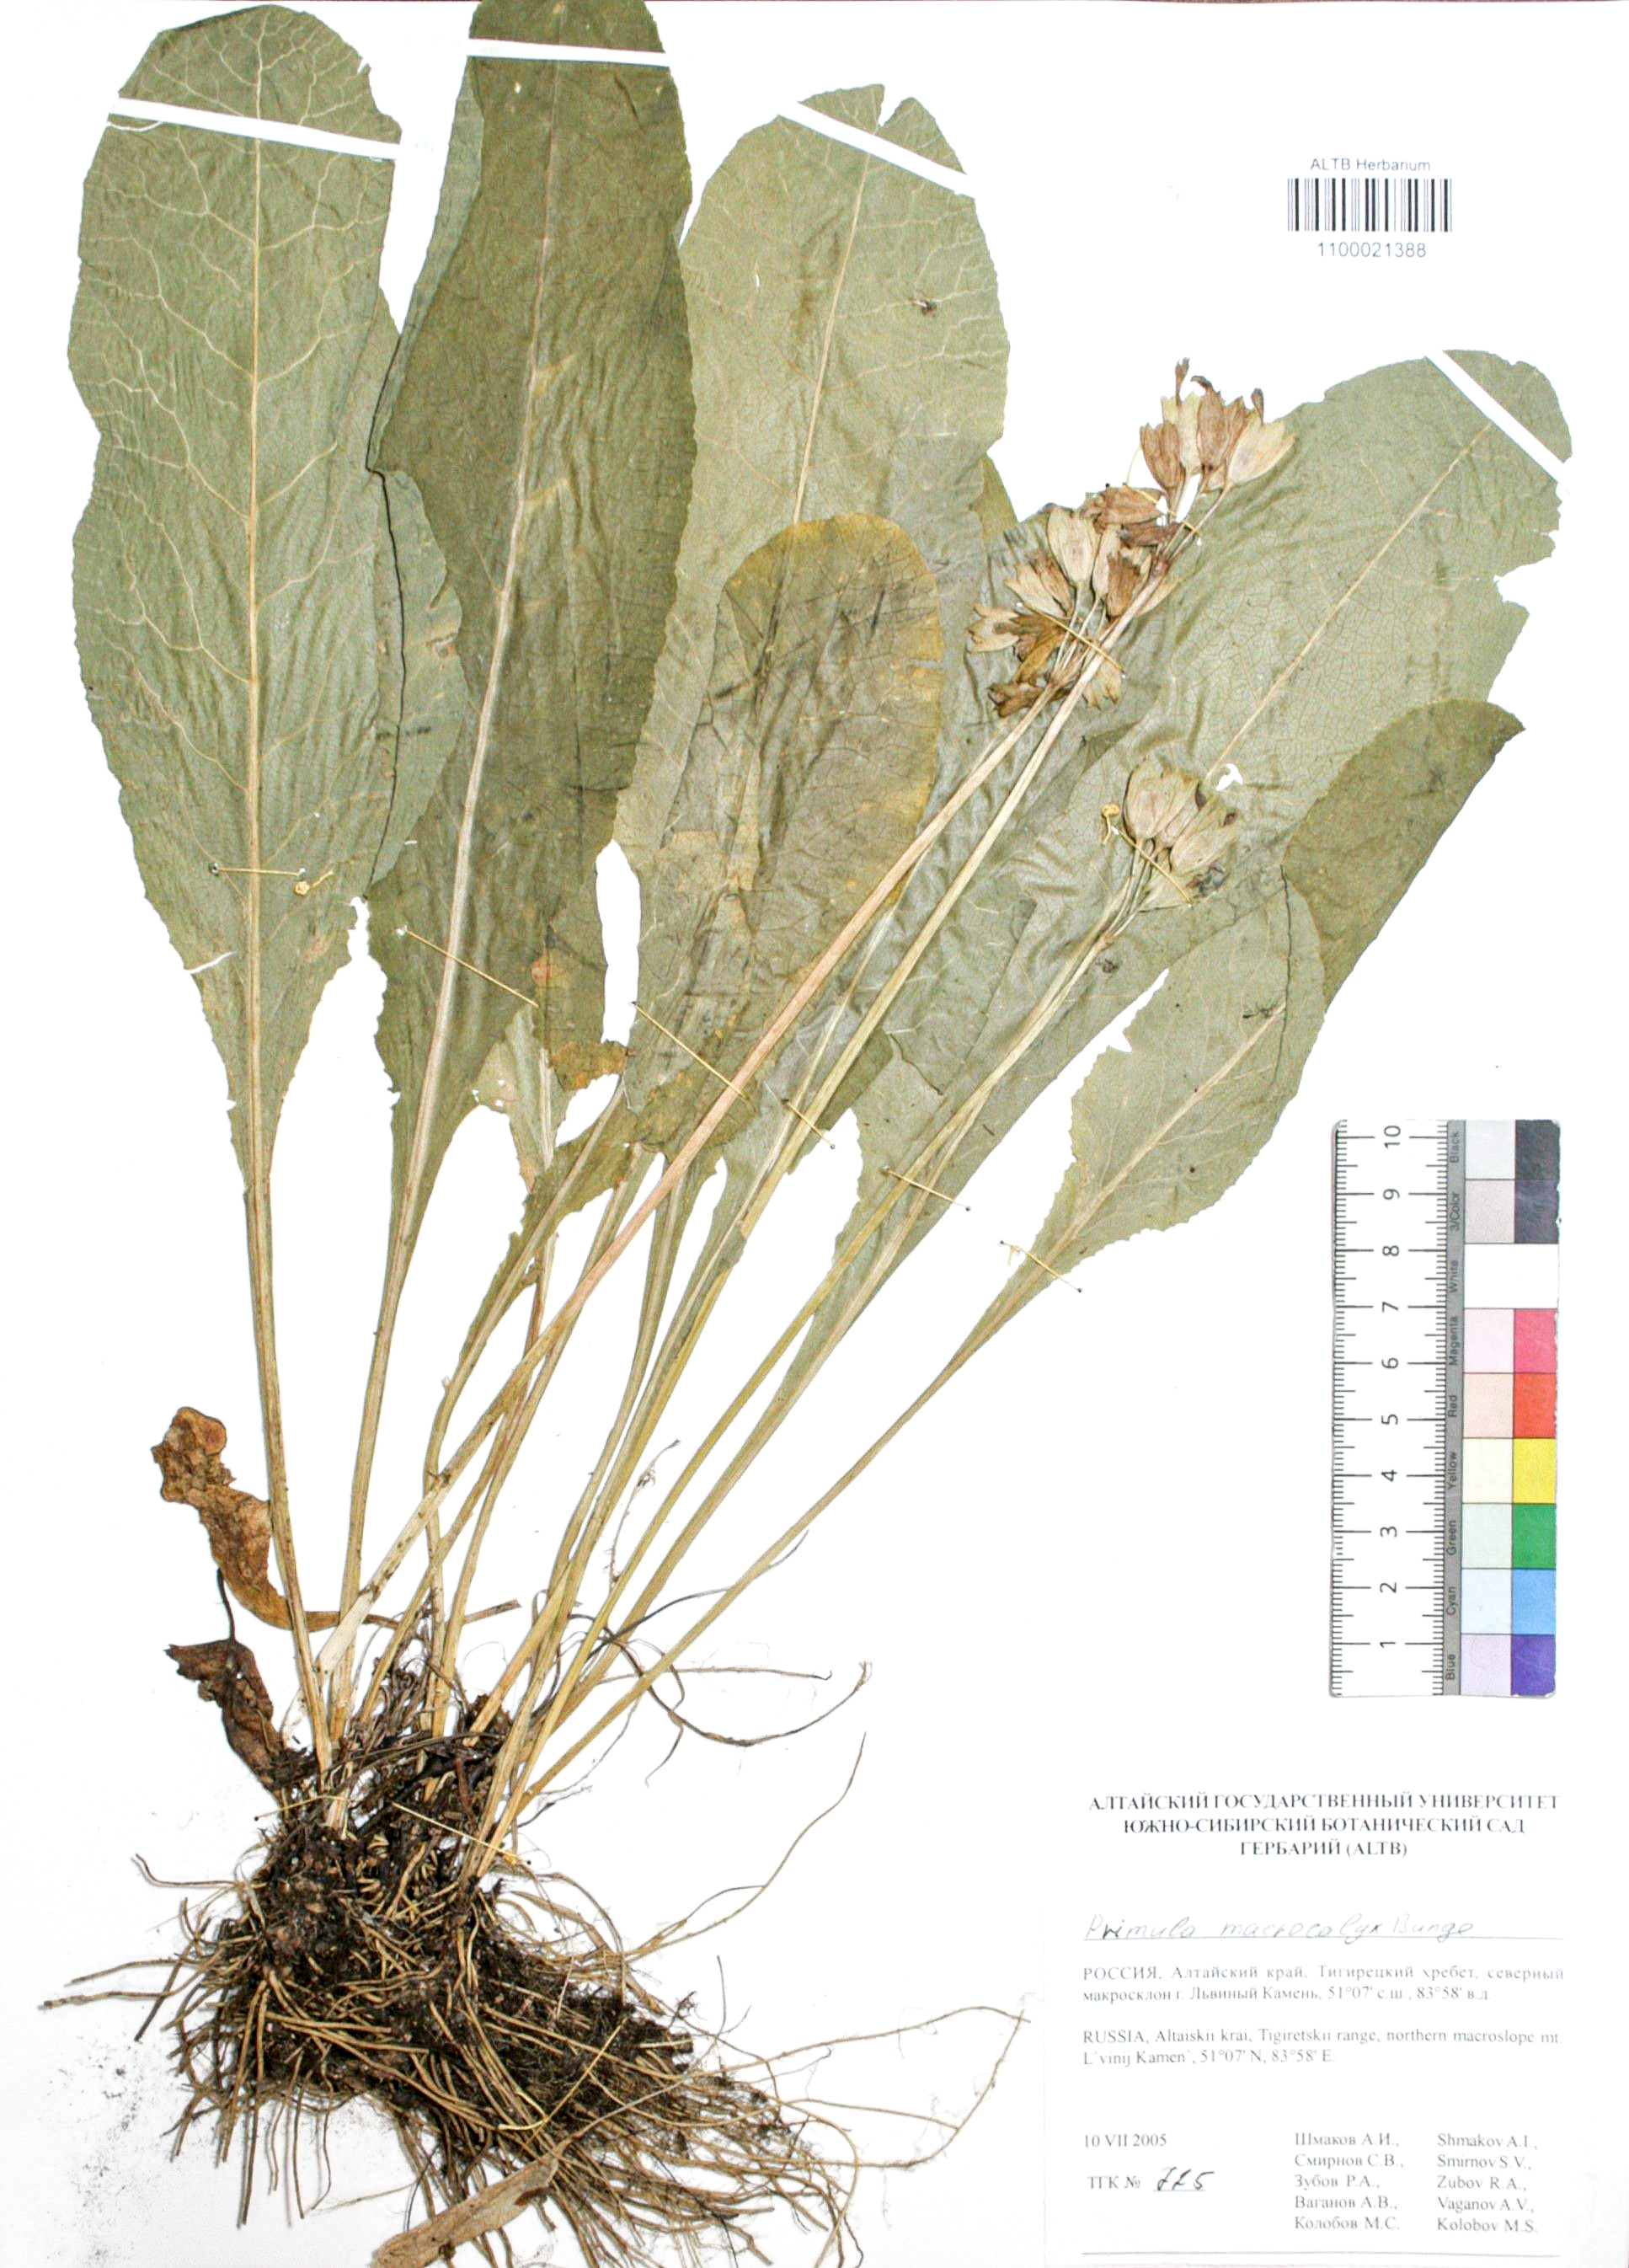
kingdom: Plantae
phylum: Tracheophyta
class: Magnoliopsida
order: Ericales
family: Primulaceae
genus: Primula
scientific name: Primula veris
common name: Cowslip
